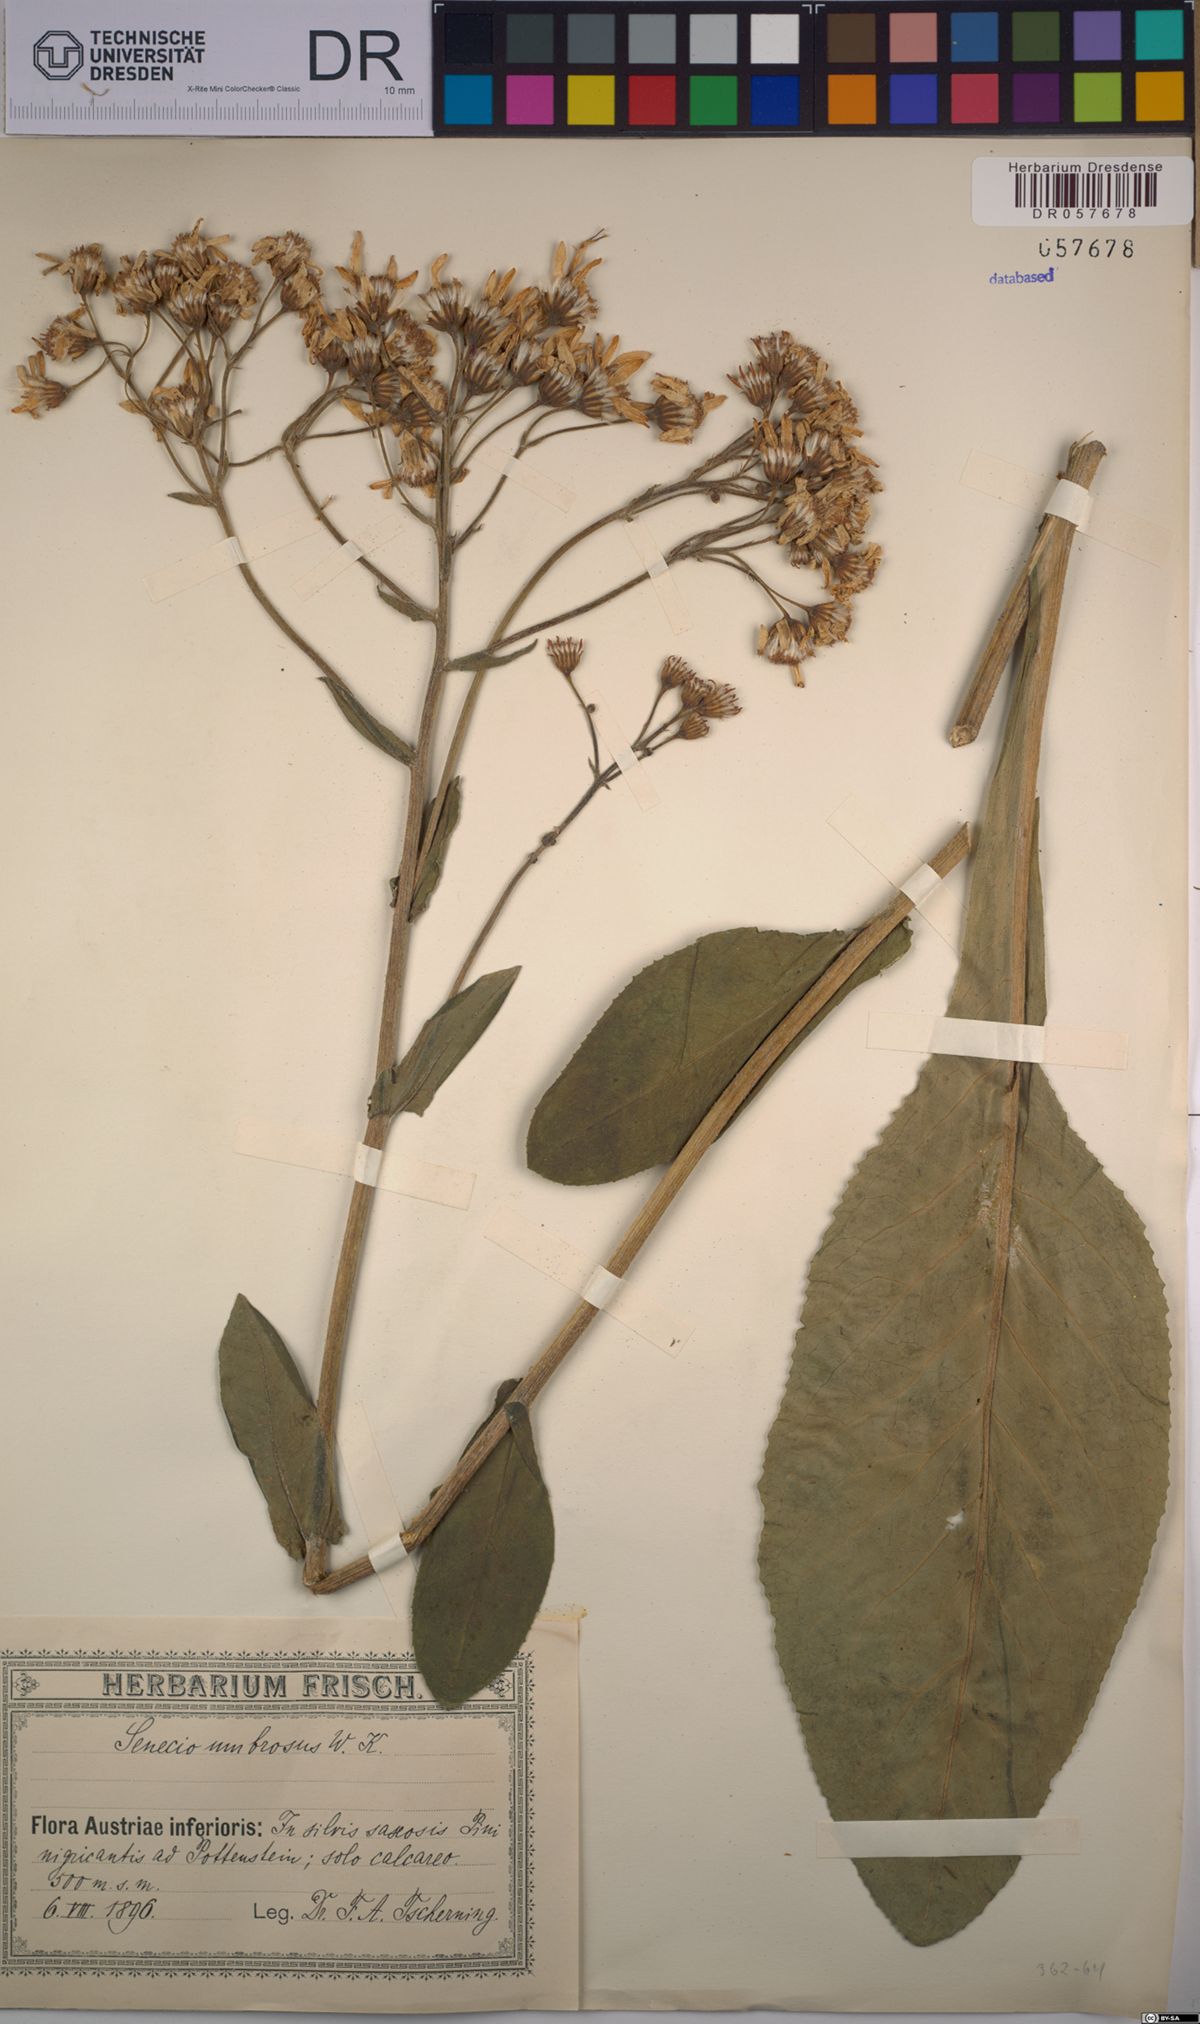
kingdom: Plantae
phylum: Tracheophyta
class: Magnoliopsida
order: Asterales
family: Asteraceae
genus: Senecio
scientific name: Senecio umbrosus
